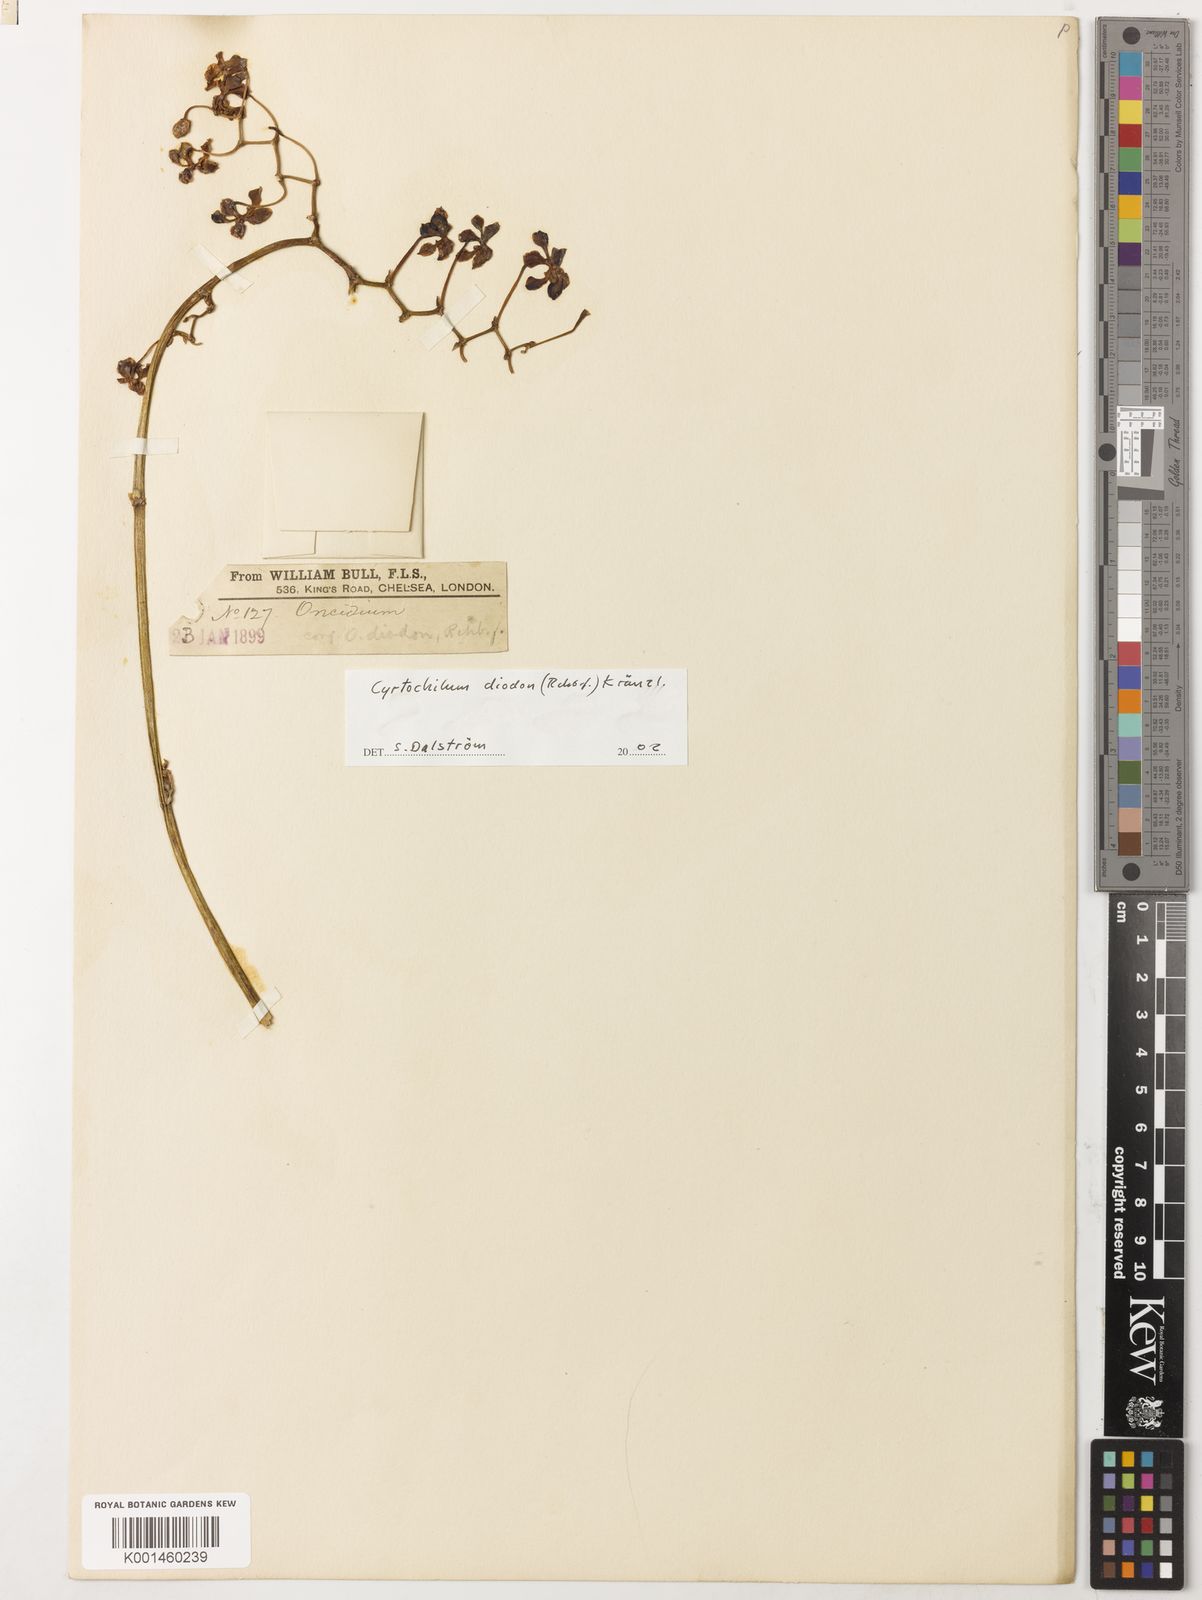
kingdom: Plantae
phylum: Tracheophyta
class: Liliopsida
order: Asparagales
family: Orchidaceae
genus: Cyrtochilum
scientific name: Cyrtochilum diodon
